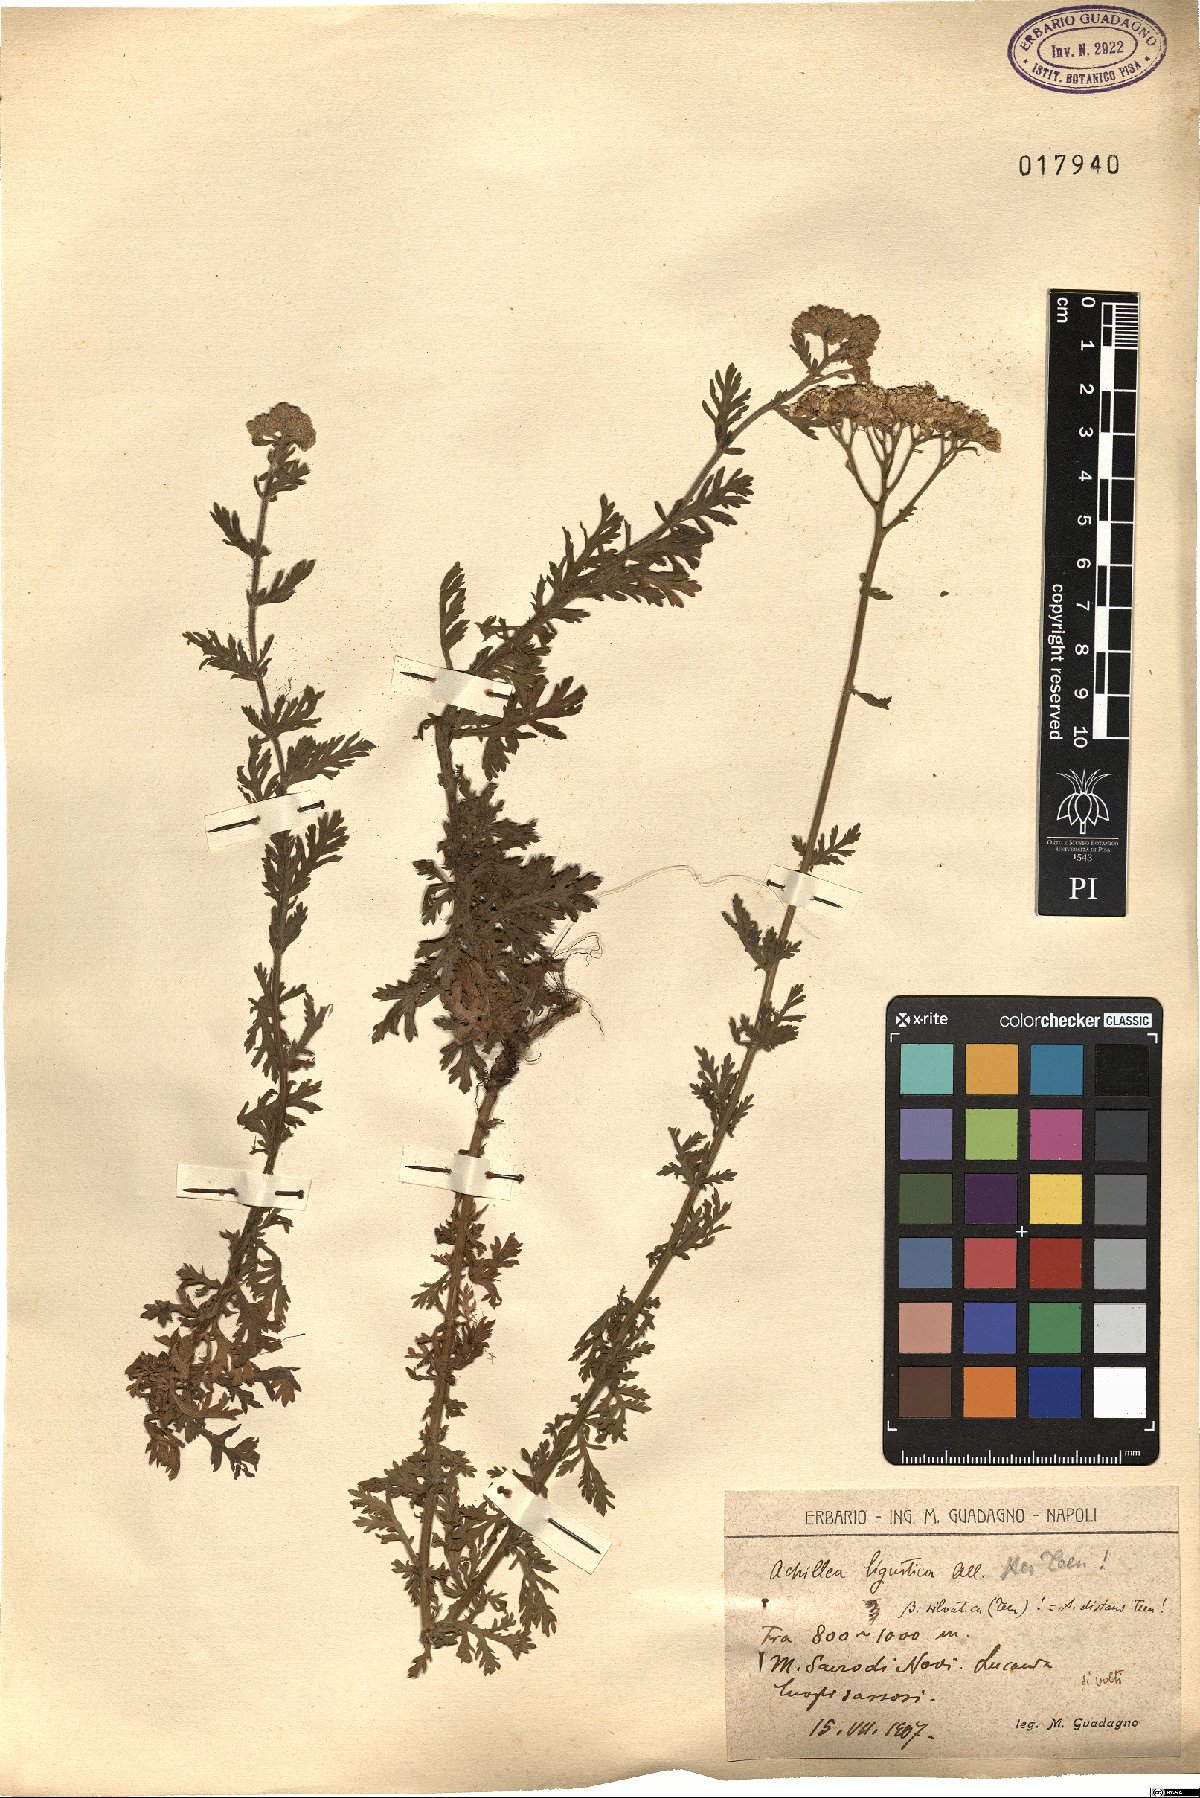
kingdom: Plantae
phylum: Tracheophyta
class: Magnoliopsida
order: Asterales
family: Asteraceae
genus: Achillea
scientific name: Achillea ligustica
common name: Southern yarrow
